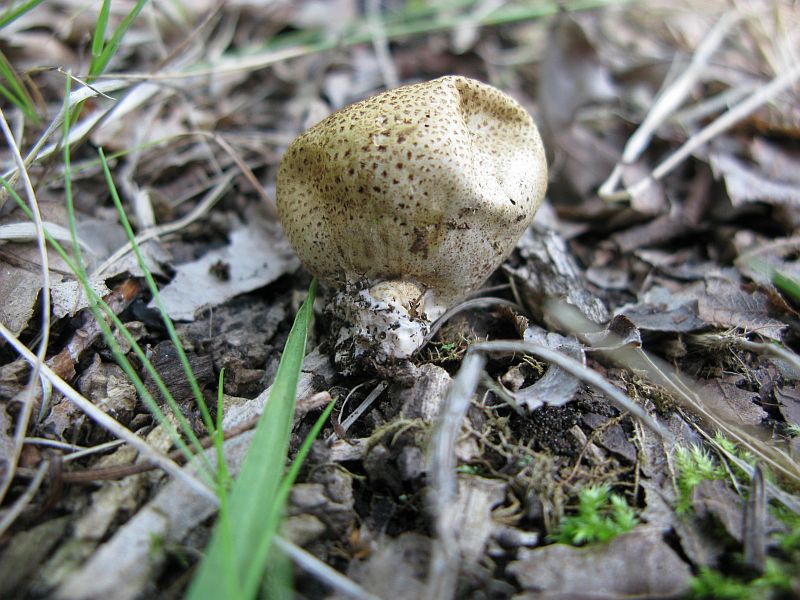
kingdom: Fungi
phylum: Basidiomycota
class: Agaricomycetes
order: Boletales
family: Sclerodermataceae
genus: Scleroderma
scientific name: Scleroderma areolatum
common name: plettet bruskbold
